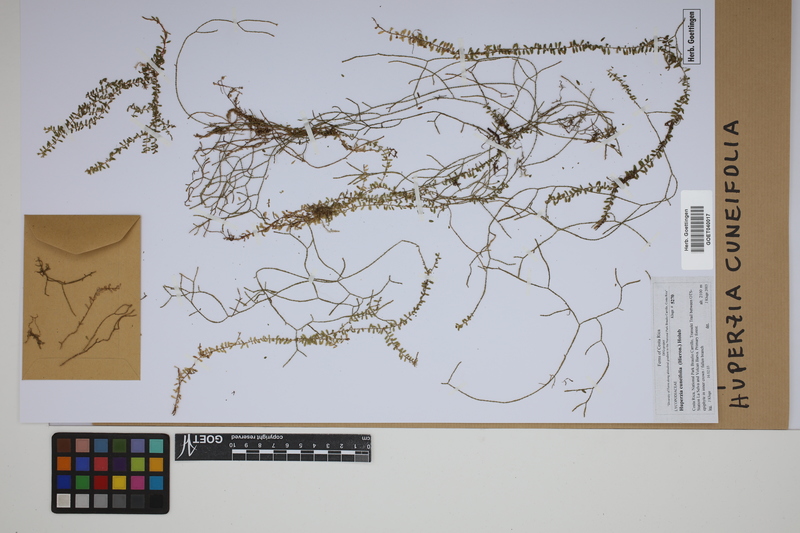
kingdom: Plantae
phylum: Tracheophyta
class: Lycopodiopsida
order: Lycopodiales
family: Lycopodiaceae
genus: Phlegmariurus
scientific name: Phlegmariurus cuneifolius
